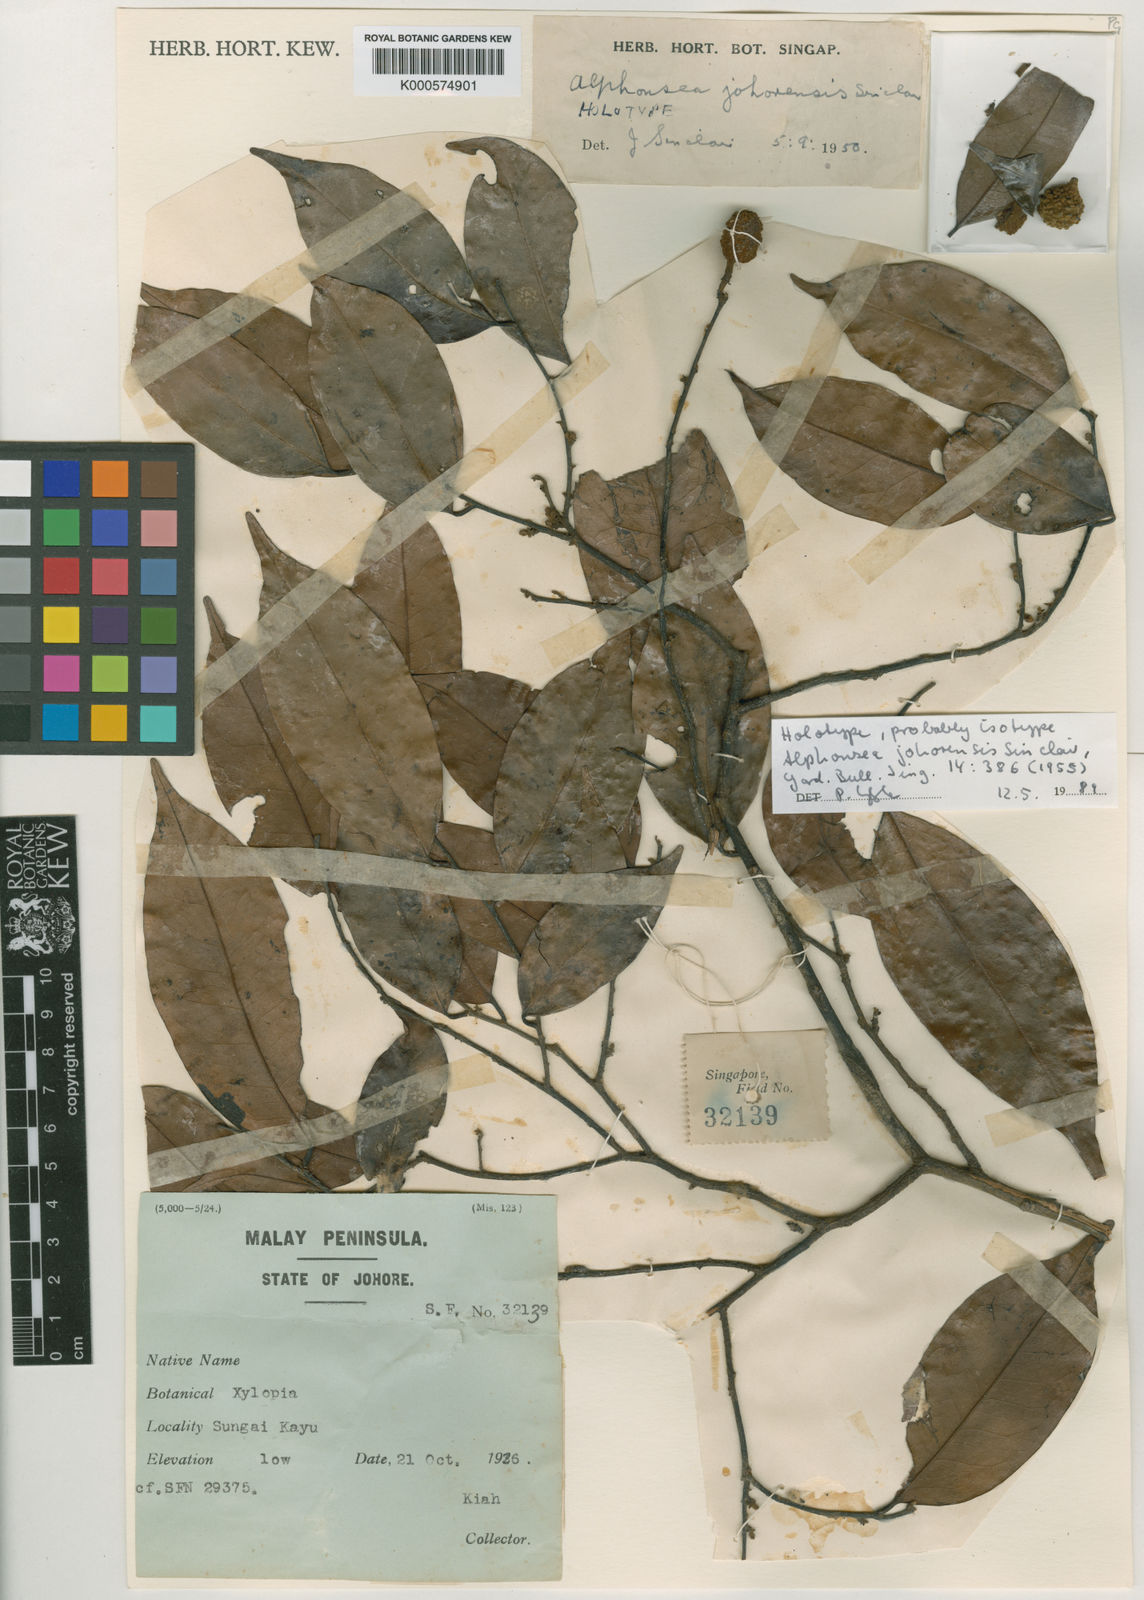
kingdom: Plantae
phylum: Tracheophyta
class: Magnoliopsida
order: Magnoliales
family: Annonaceae
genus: Alphonsea
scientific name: Alphonsea johorensis
